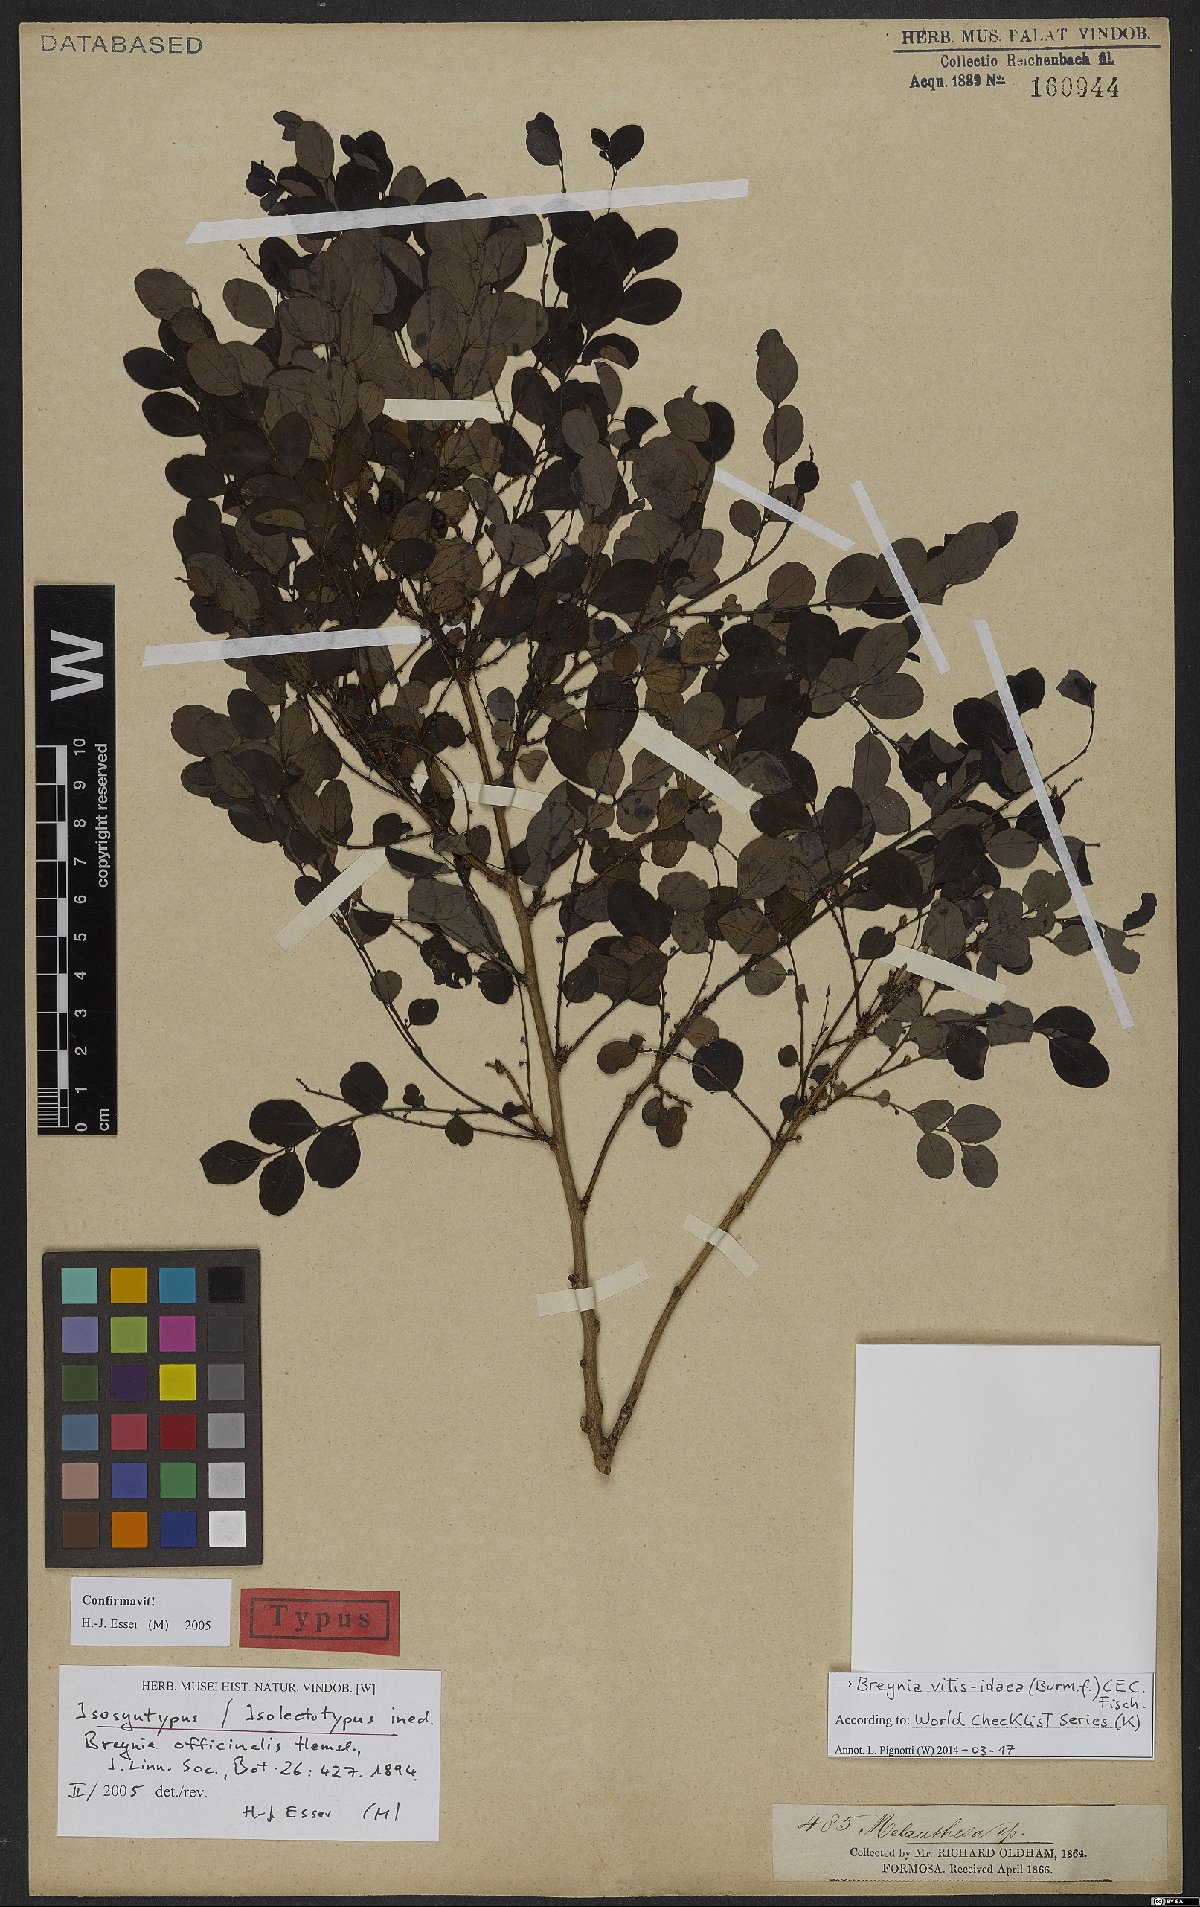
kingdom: Plantae
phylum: Tracheophyta
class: Magnoliopsida
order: Malpighiales
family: Phyllanthaceae
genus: Breynia
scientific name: Breynia vitis-idaea
